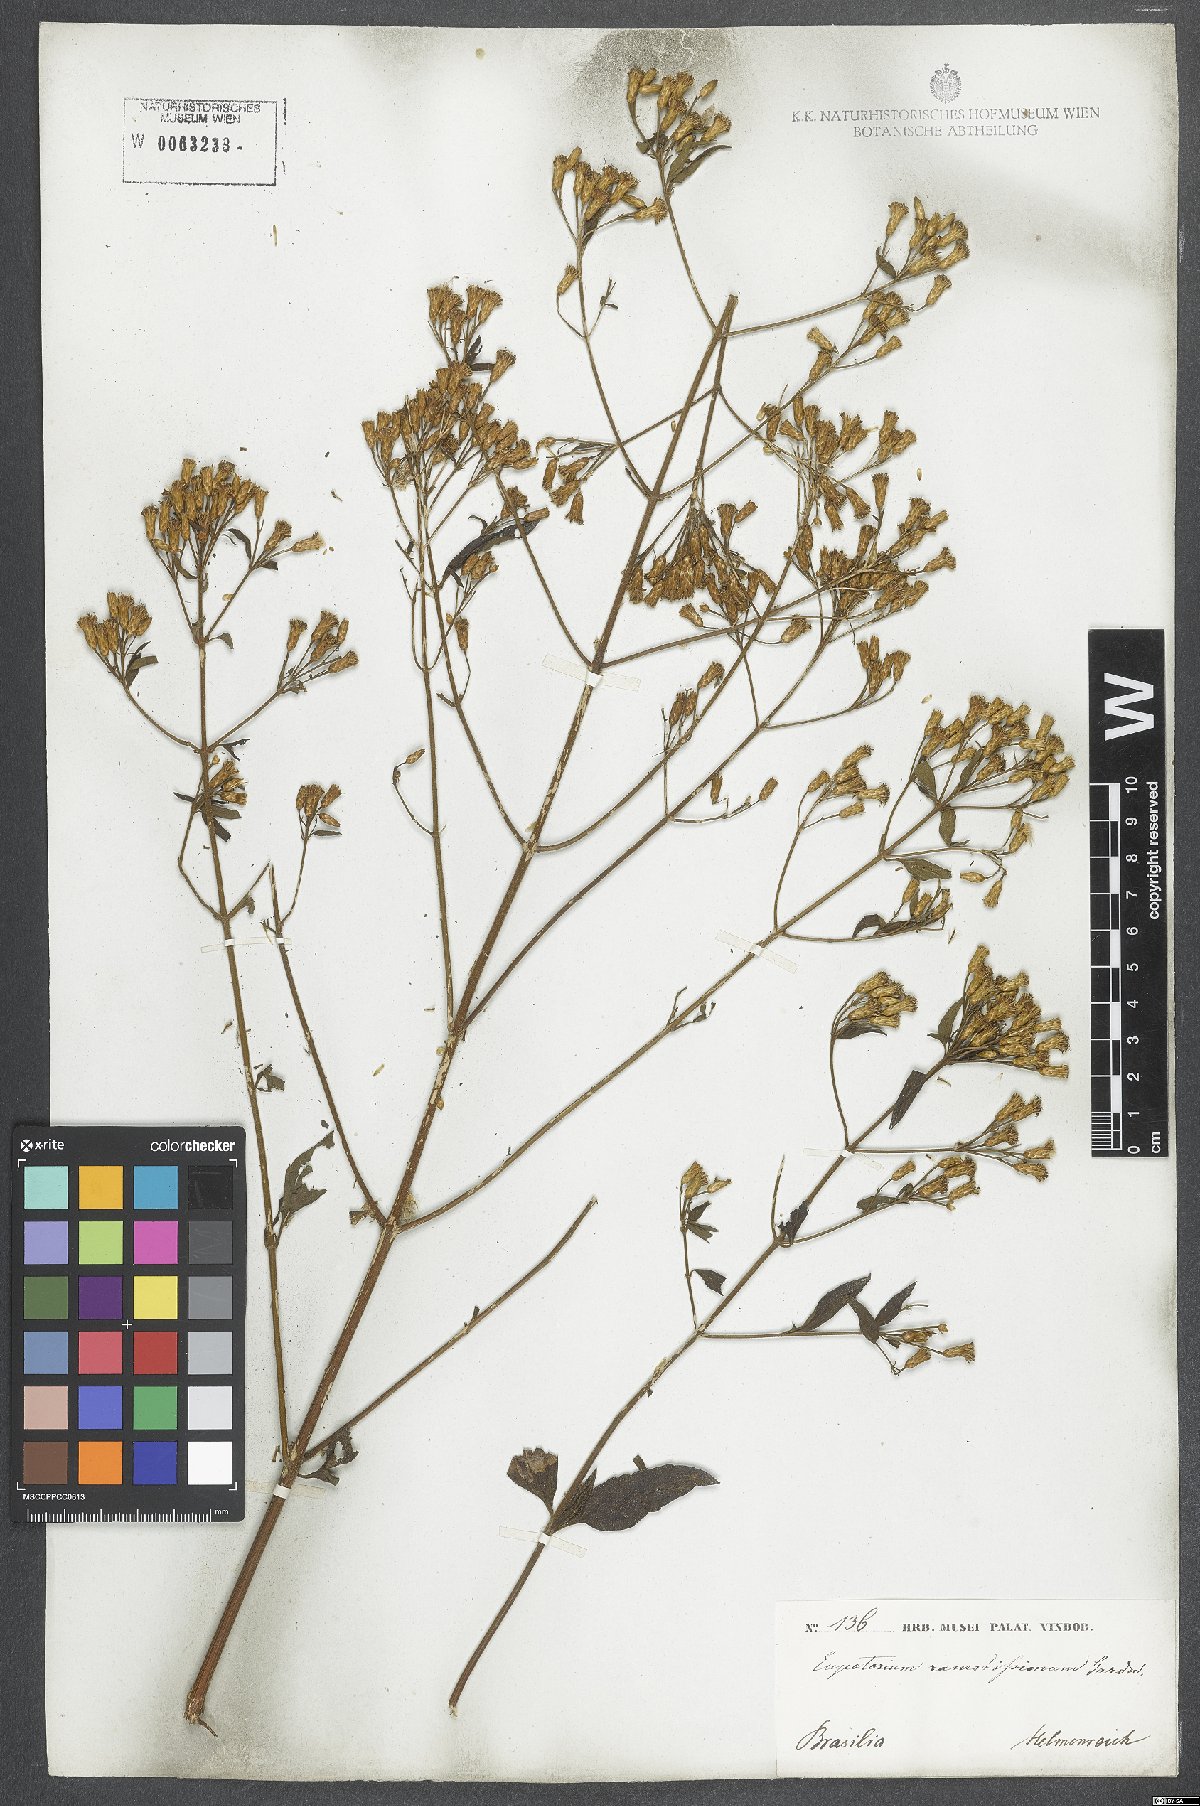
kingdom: Plantae
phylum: Tracheophyta
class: Magnoliopsida
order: Asterales
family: Asteraceae
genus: Chromolaena
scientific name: Chromolaena squalida
